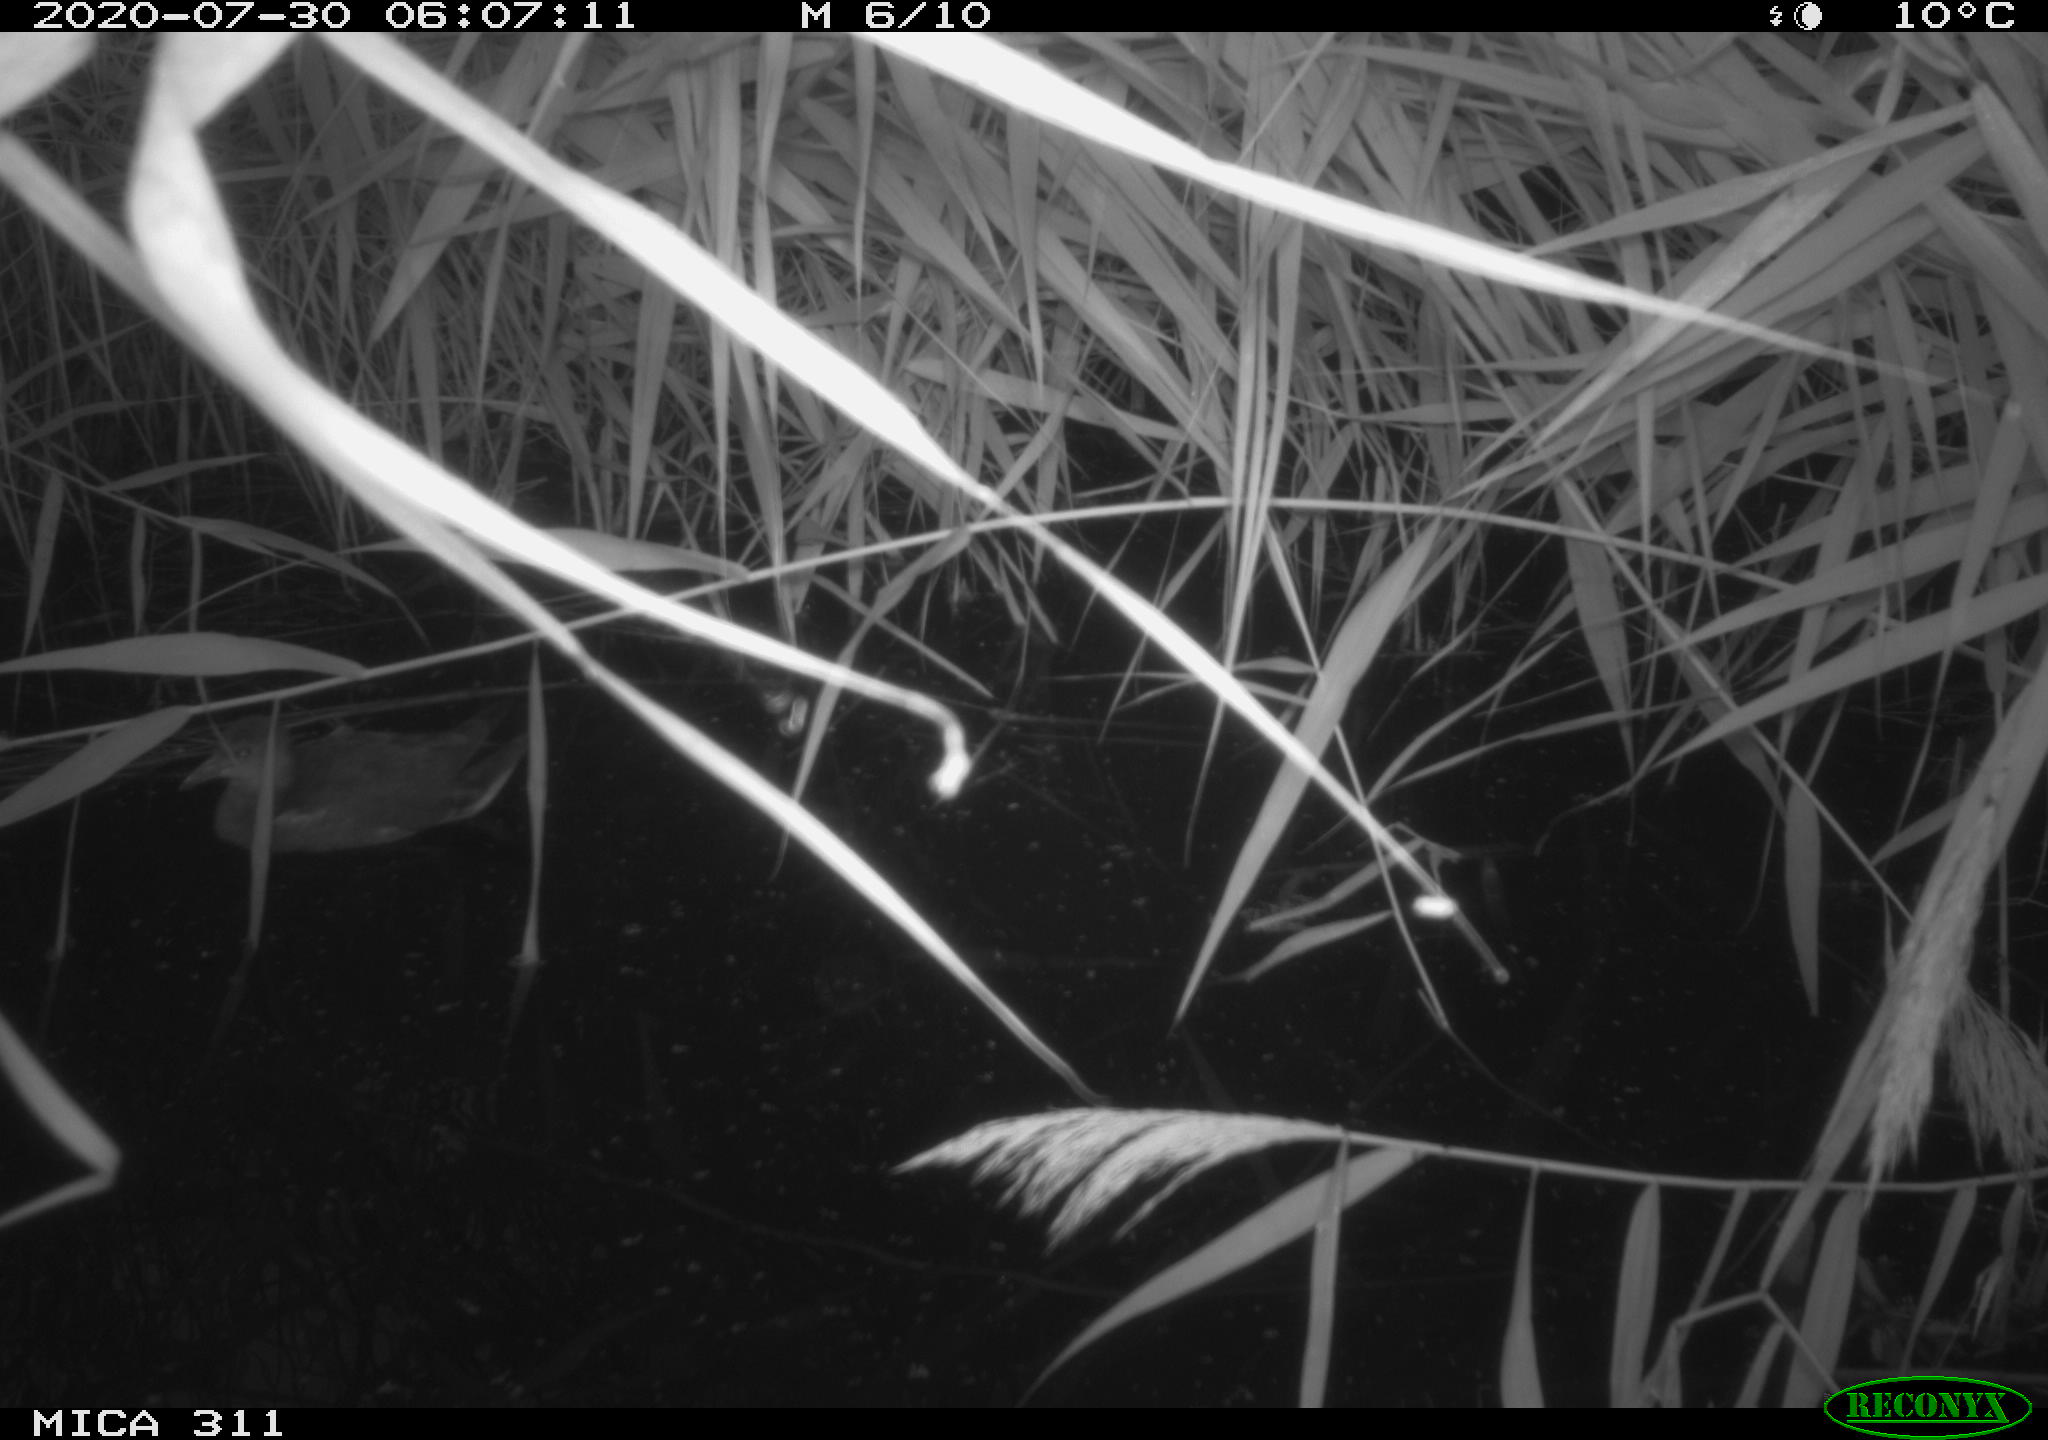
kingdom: Animalia
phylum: Chordata
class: Aves
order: Anseriformes
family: Anatidae
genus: Anas
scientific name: Anas platyrhynchos
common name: Mallard
